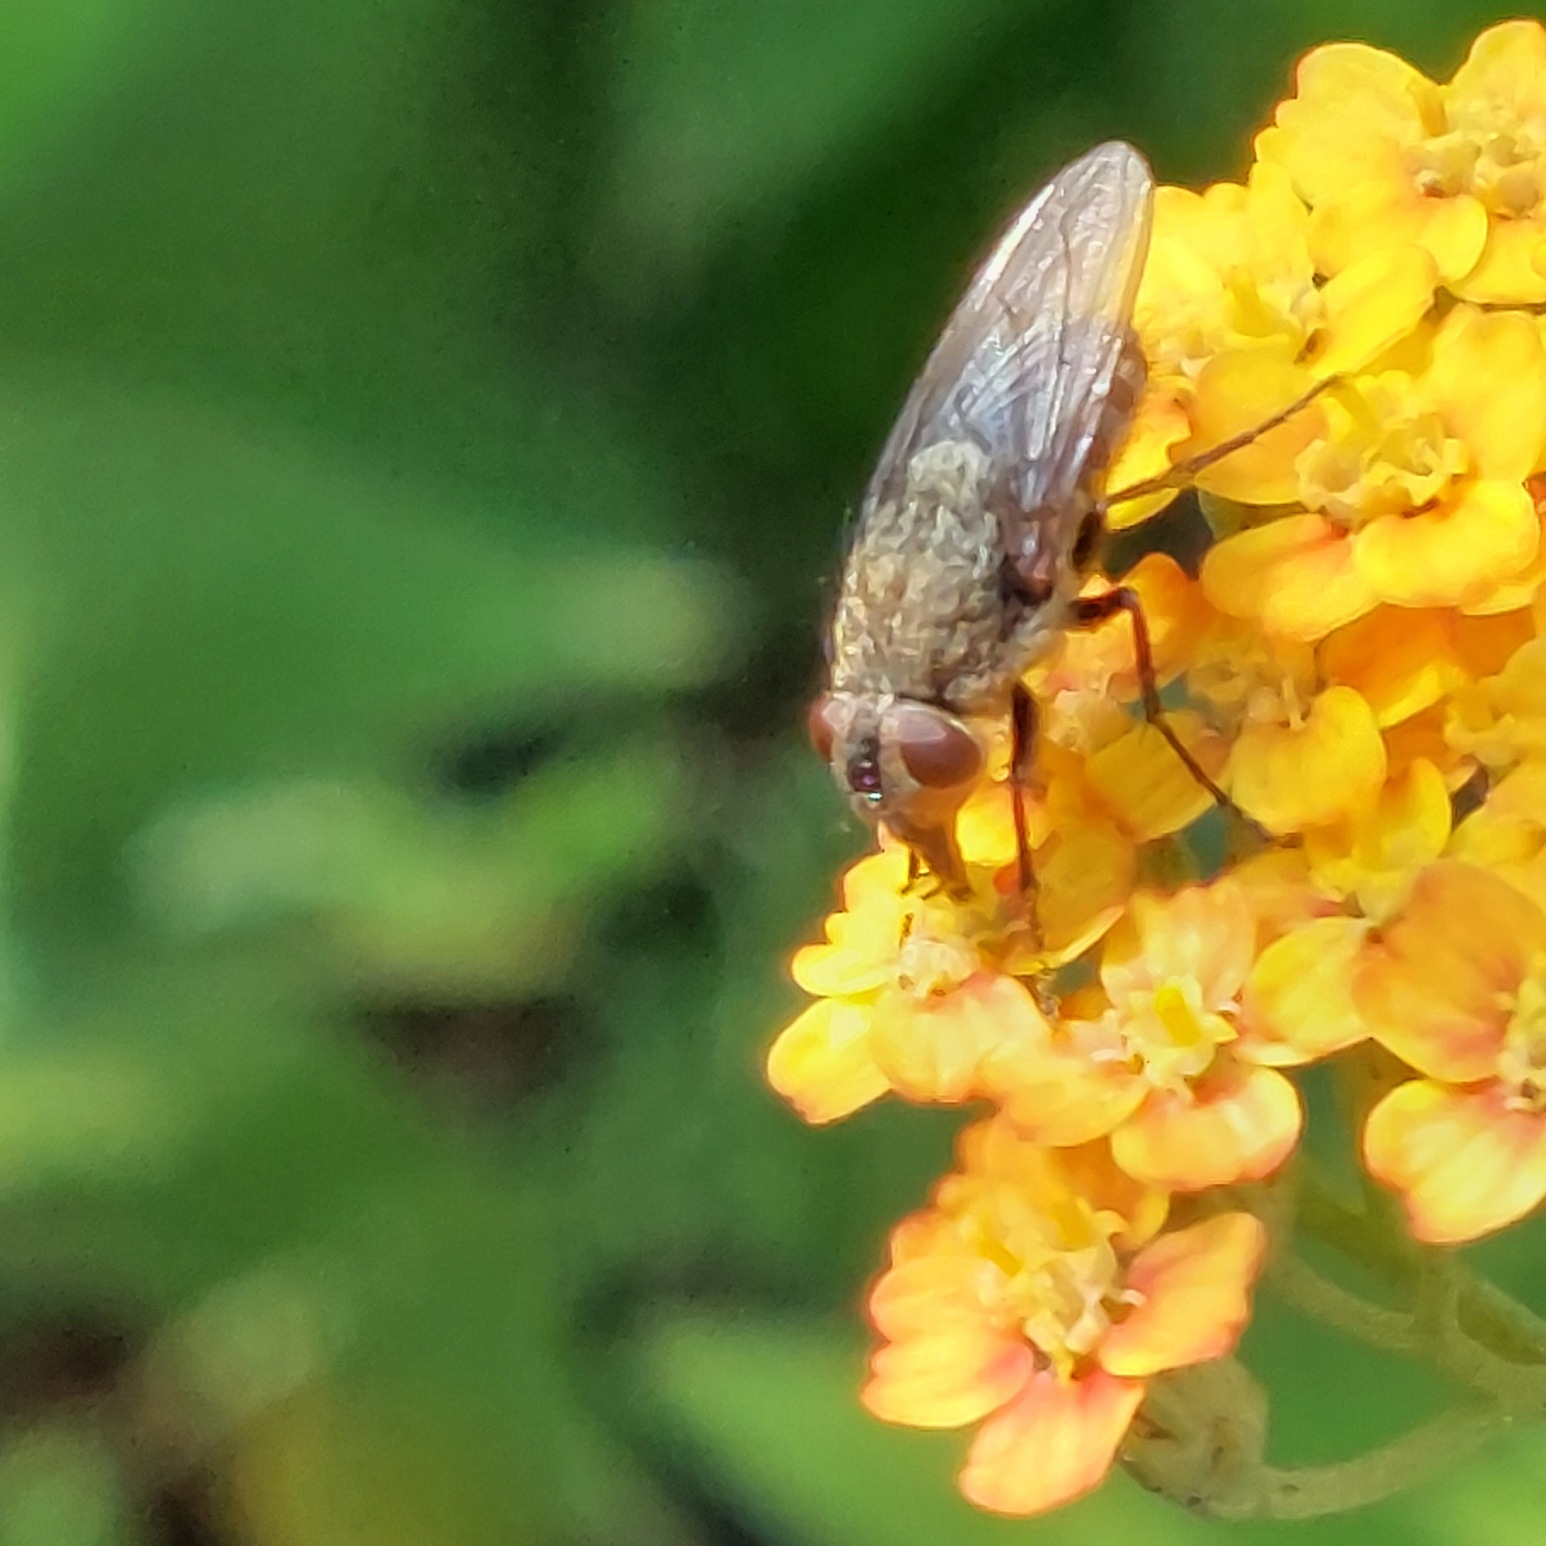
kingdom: Animalia
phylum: Arthropoda
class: Insecta
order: Diptera
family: Polleniidae
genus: Pollenia
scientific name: Pollenia
